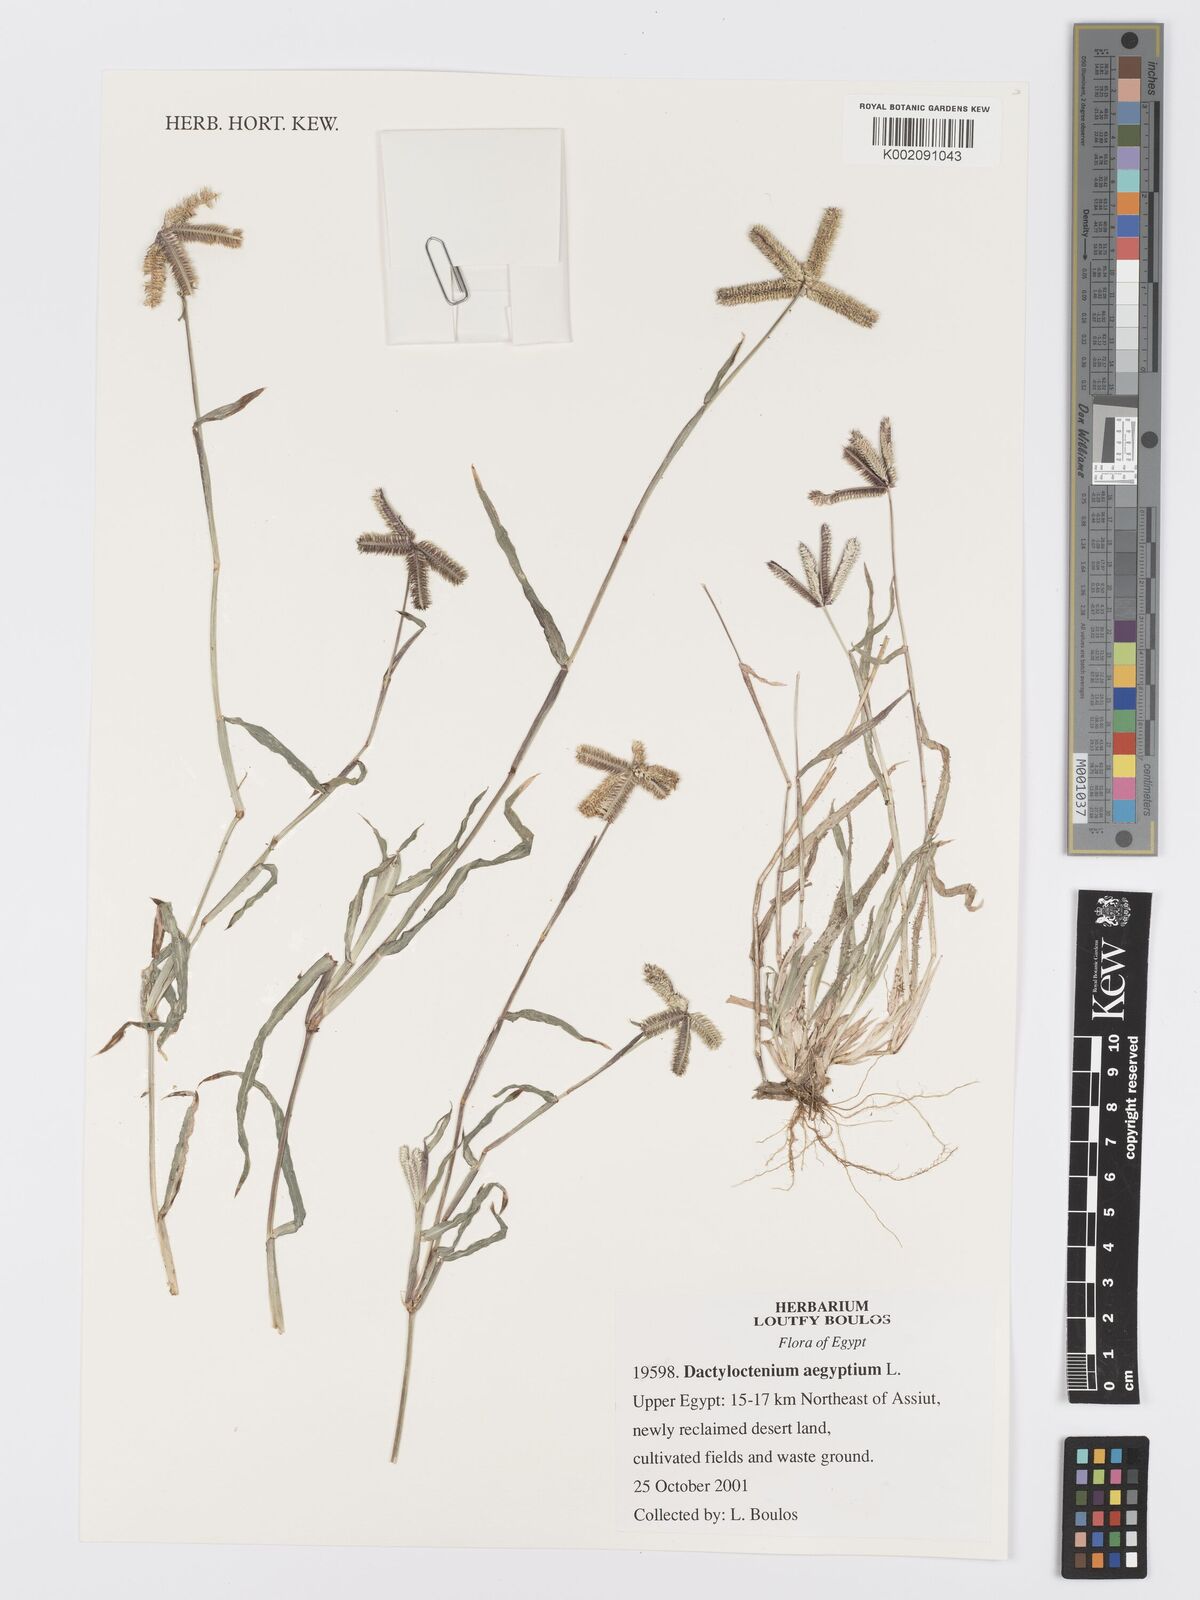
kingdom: Plantae
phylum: Tracheophyta
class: Liliopsida
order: Poales
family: Poaceae
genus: Dactyloctenium
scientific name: Dactyloctenium aegyptium
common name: Egyptian grass
